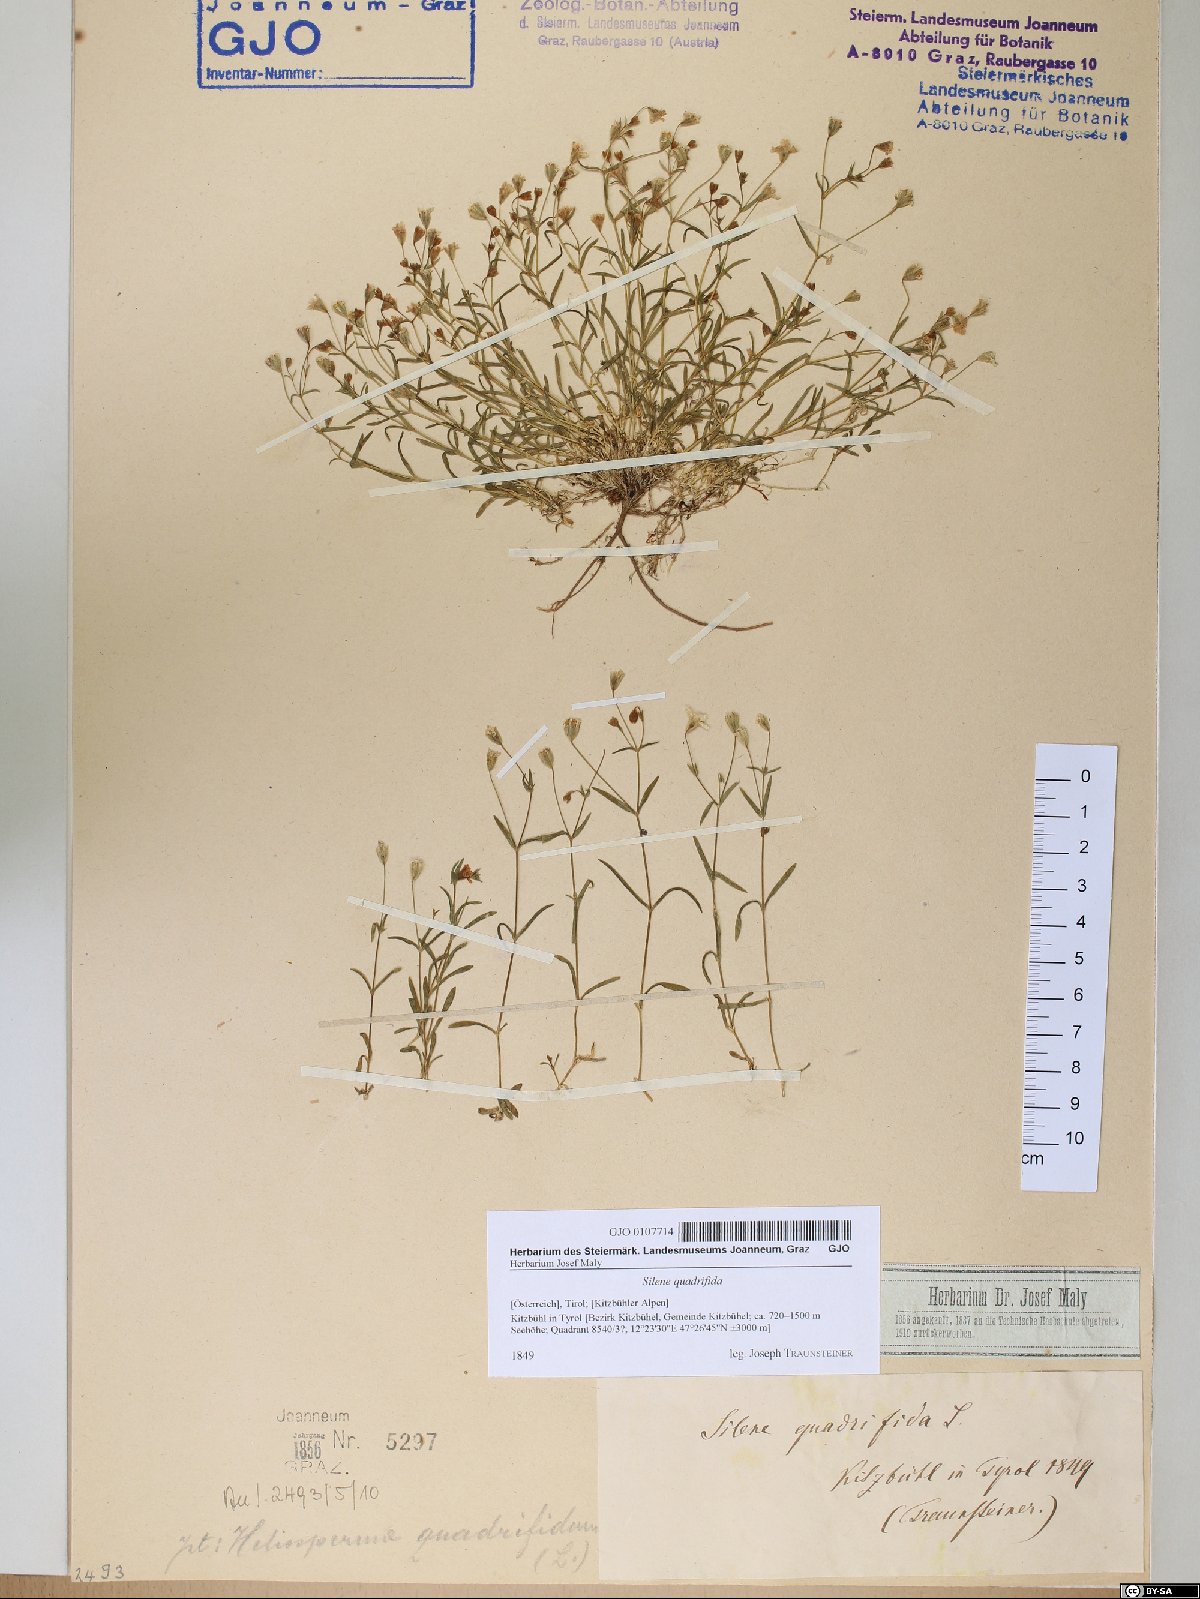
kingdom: Plantae
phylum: Tracheophyta
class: Magnoliopsida
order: Caryophyllales
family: Caryophyllaceae
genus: Heliosperma
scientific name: Heliosperma alpestre
